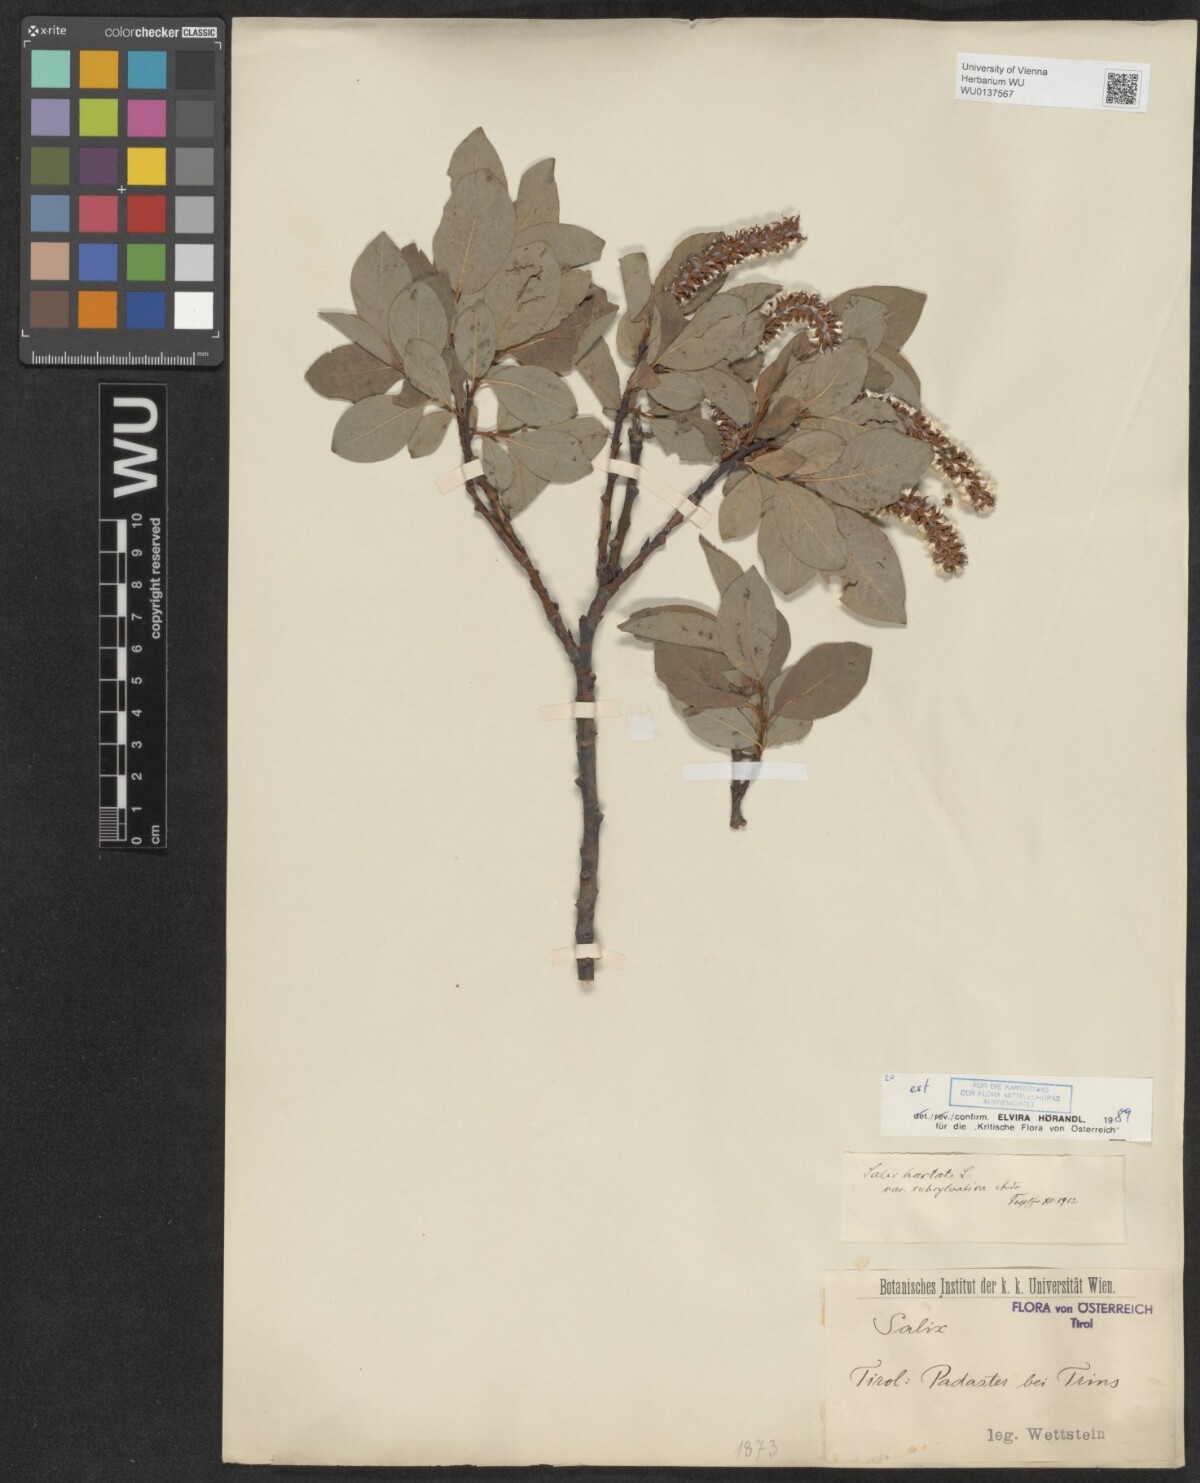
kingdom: Plantae
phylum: Tracheophyta
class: Magnoliopsida
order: Malpighiales
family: Salicaceae
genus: Salix
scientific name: Salix hastata
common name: Halberd willow
